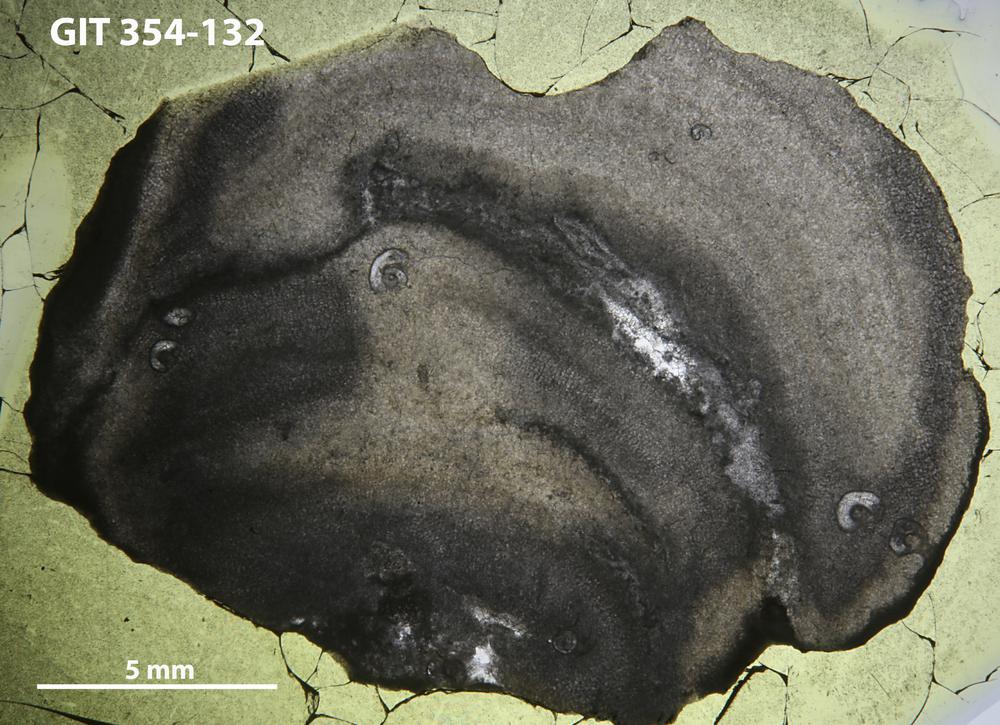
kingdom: Animalia
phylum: Porifera
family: Clathrodictyidae
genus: Clathrodictyon
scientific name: Clathrodictyon boreale
